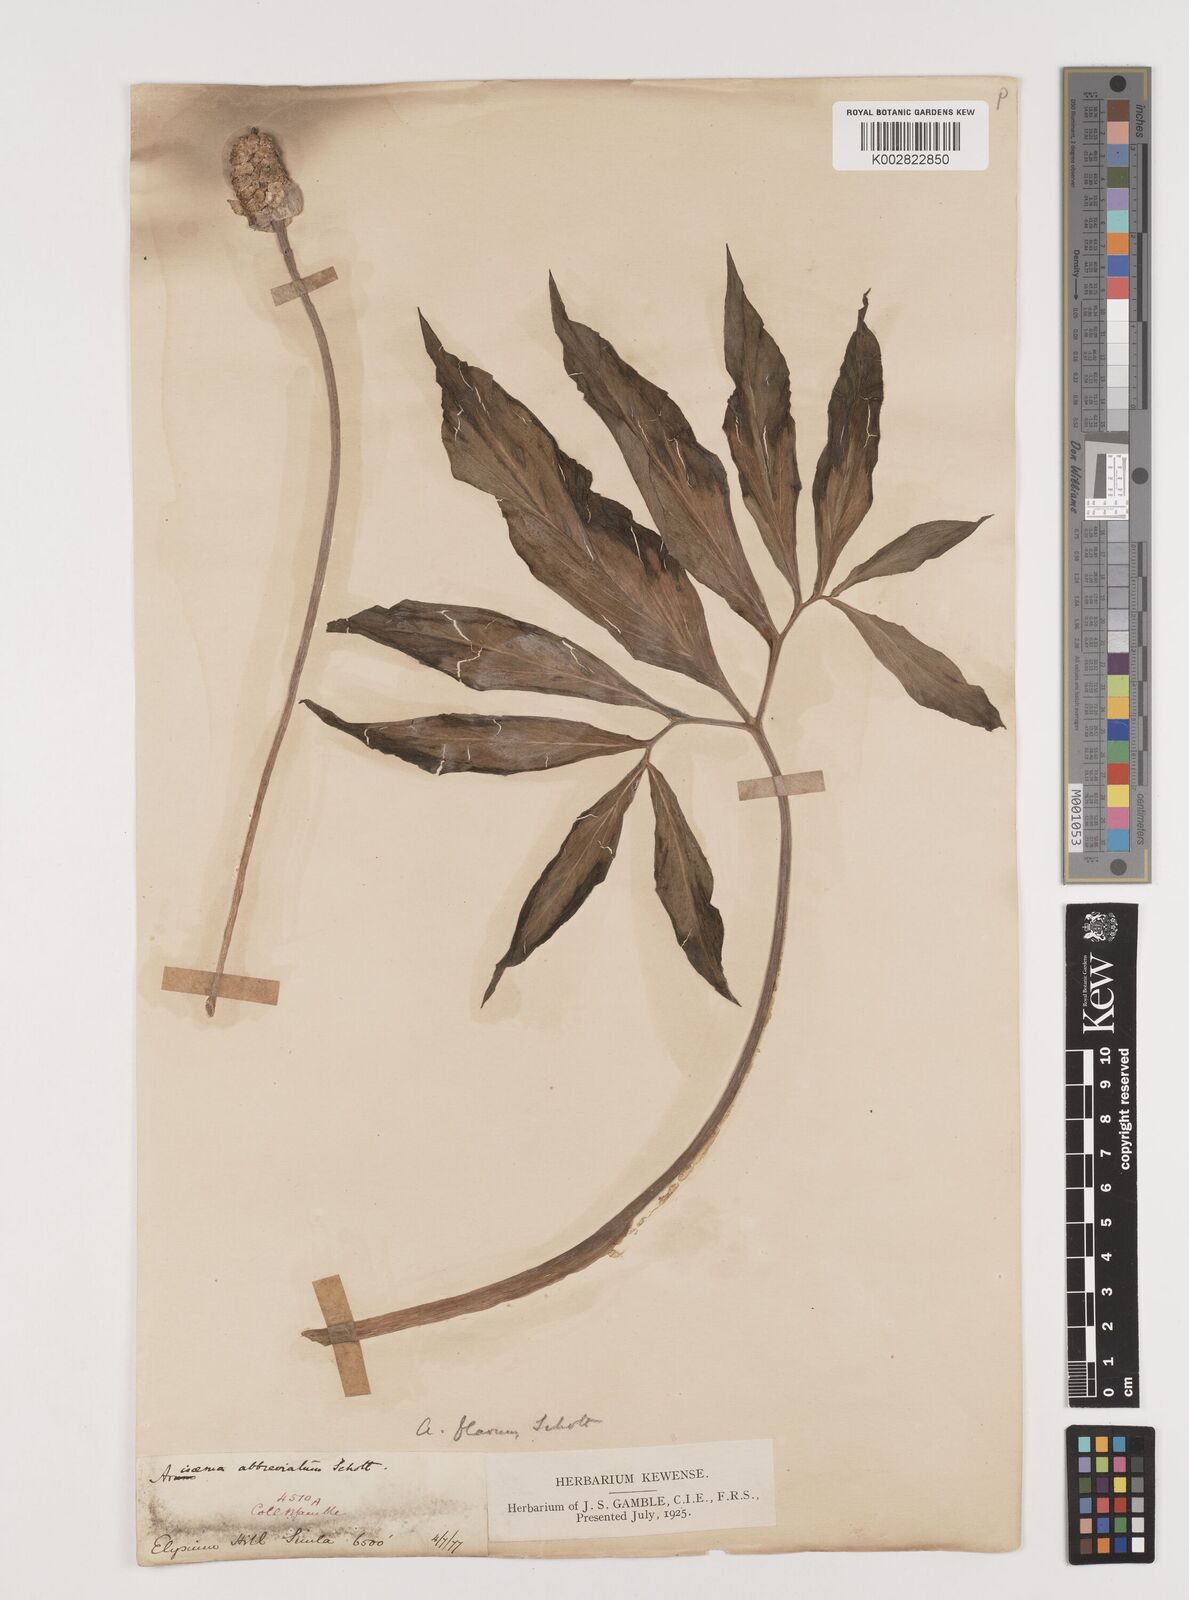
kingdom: Plantae
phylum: Tracheophyta
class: Liliopsida
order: Alismatales
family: Araceae
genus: Arisaema
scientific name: Arisaema flavum
